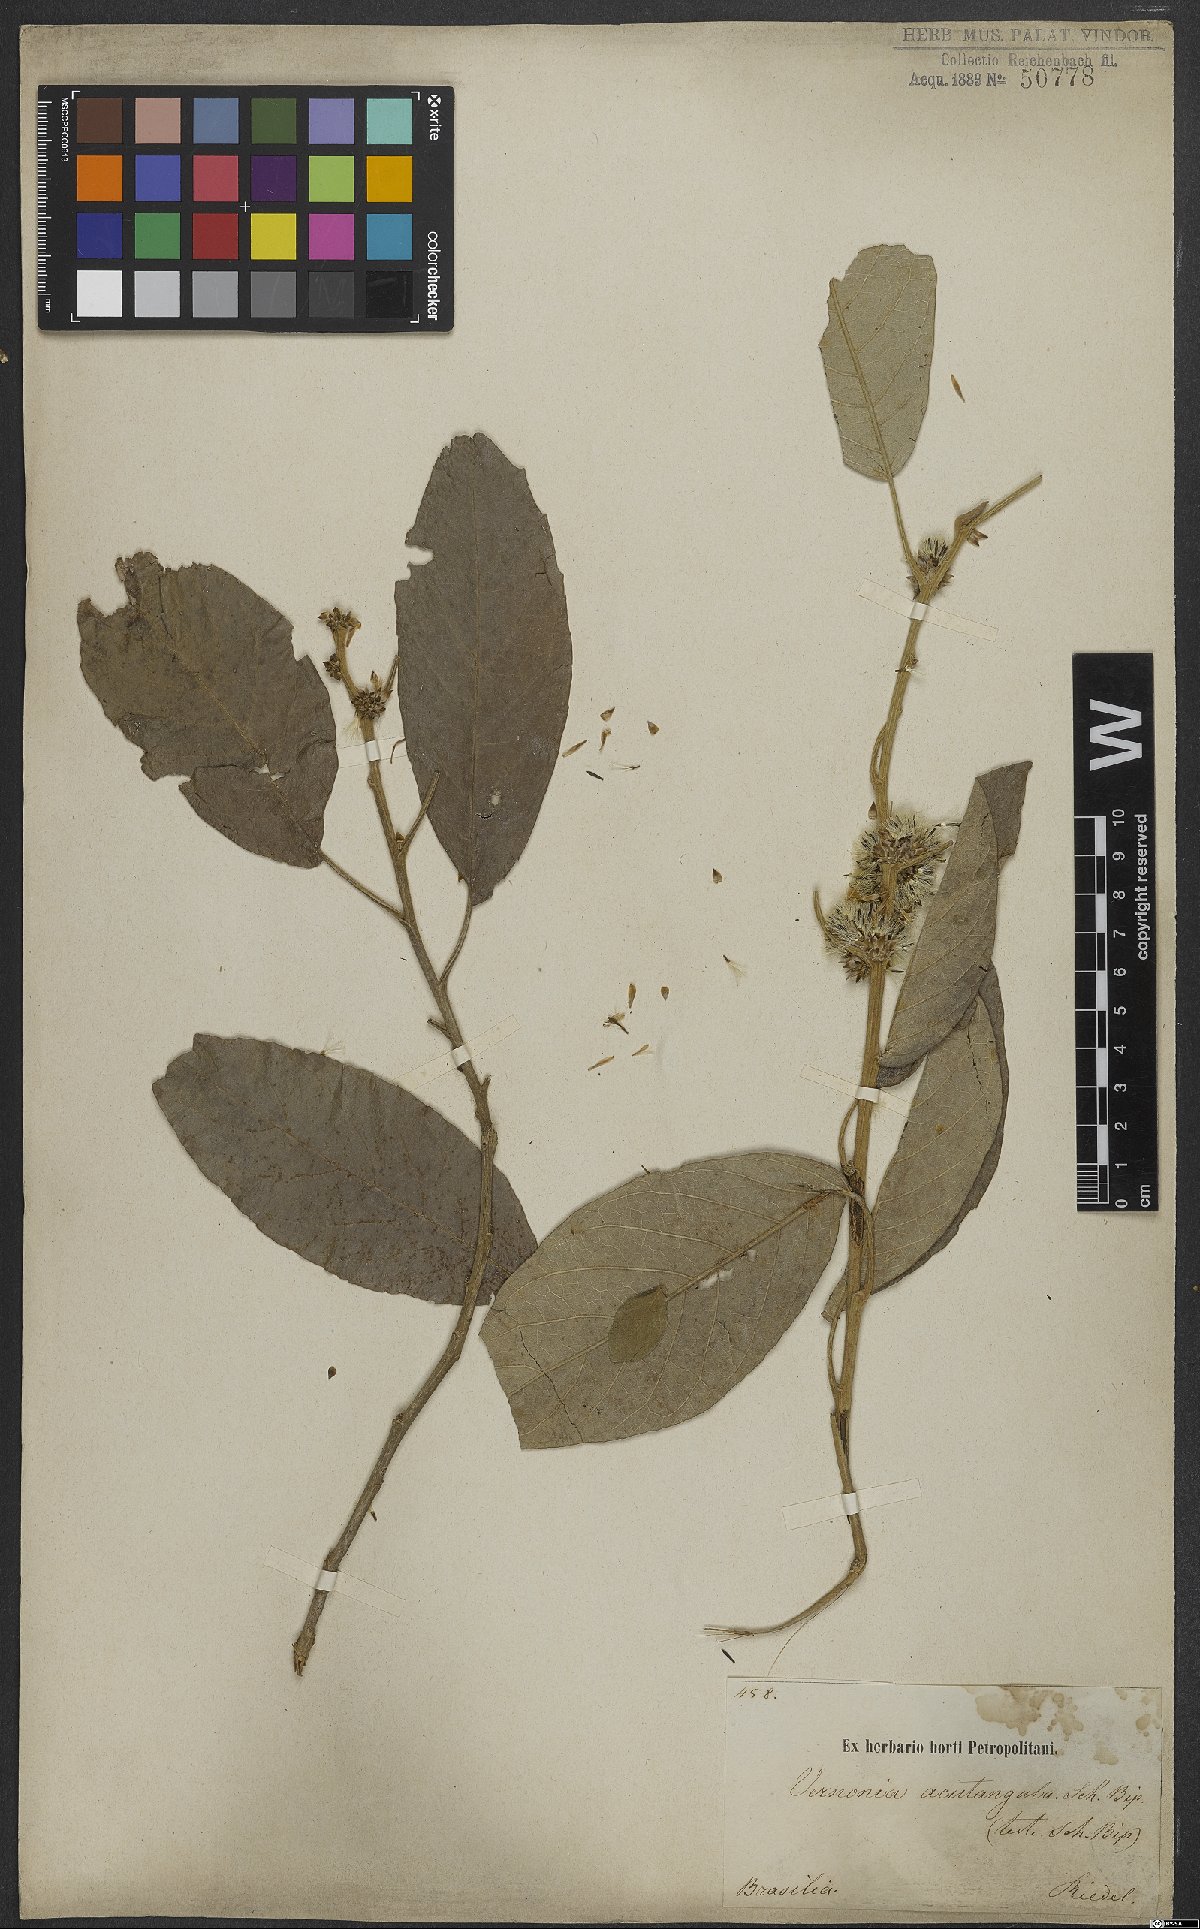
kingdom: Plantae
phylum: Tracheophyta
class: Magnoliopsida
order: Asterales
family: Asteraceae
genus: Piptocarpha
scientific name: Piptocarpha macropoda
